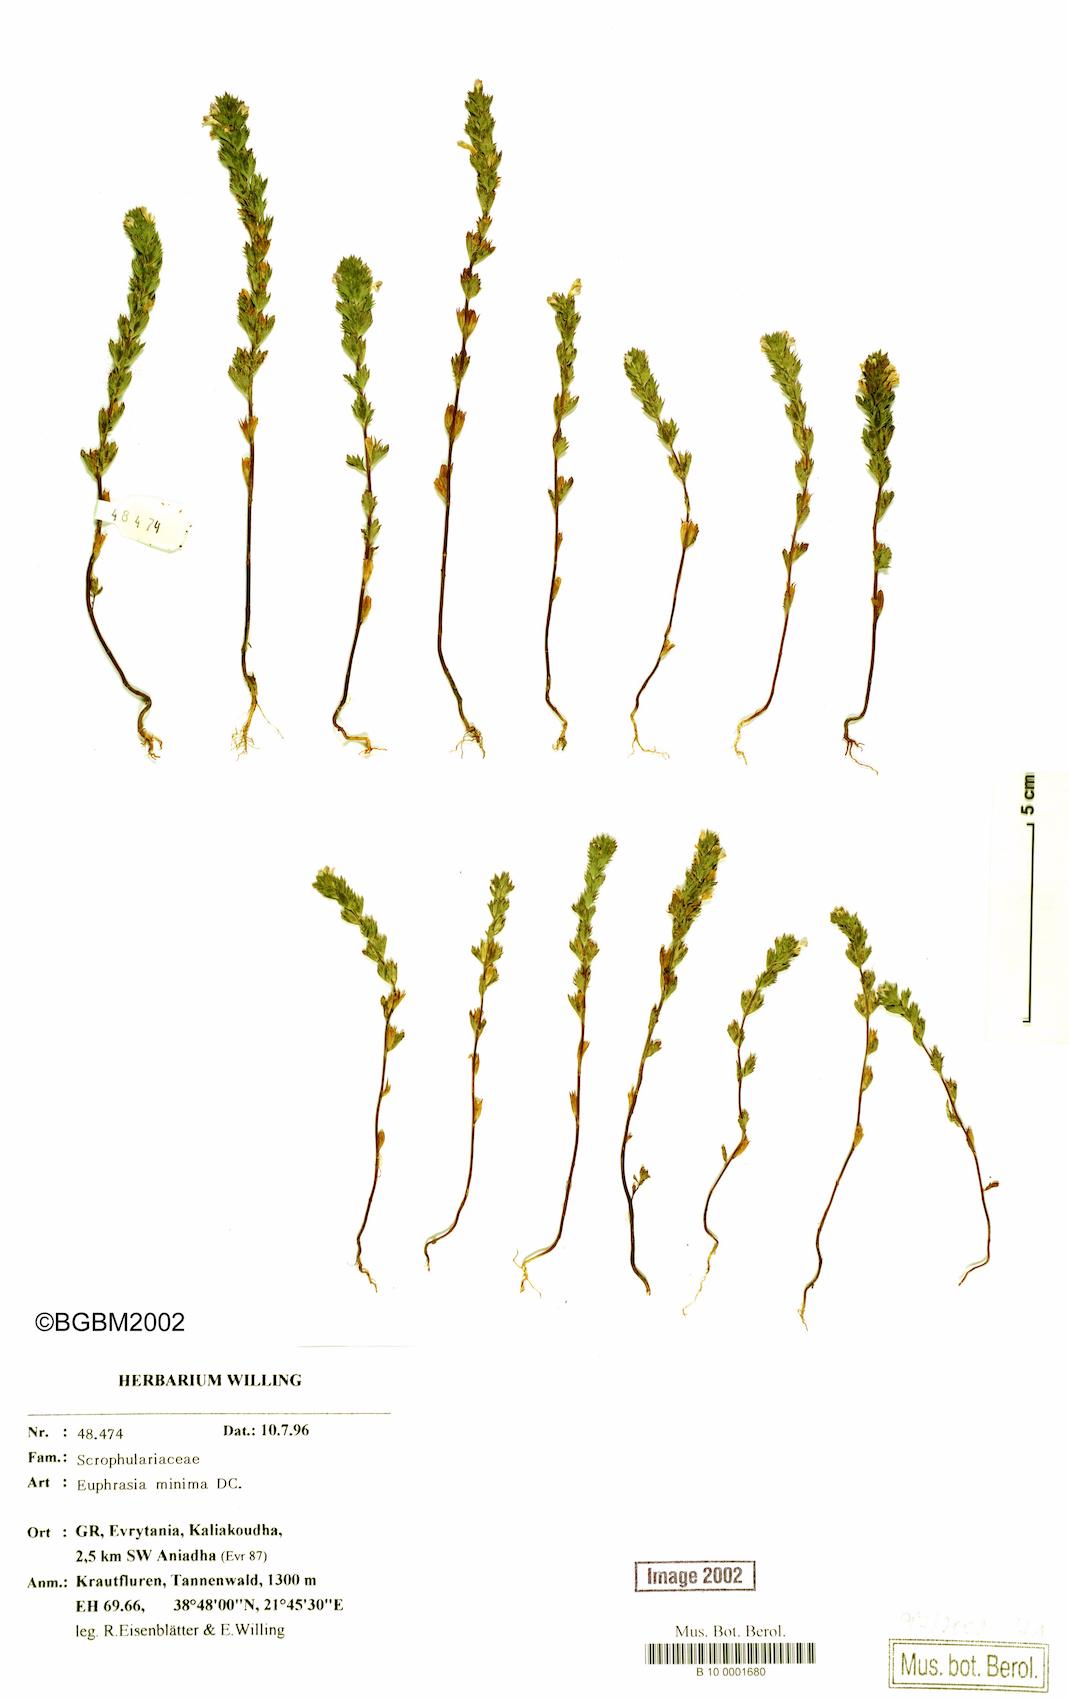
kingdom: Plantae
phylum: Tracheophyta
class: Magnoliopsida
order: Lamiales
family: Orobanchaceae
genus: Euphrasia
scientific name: Euphrasia minima
